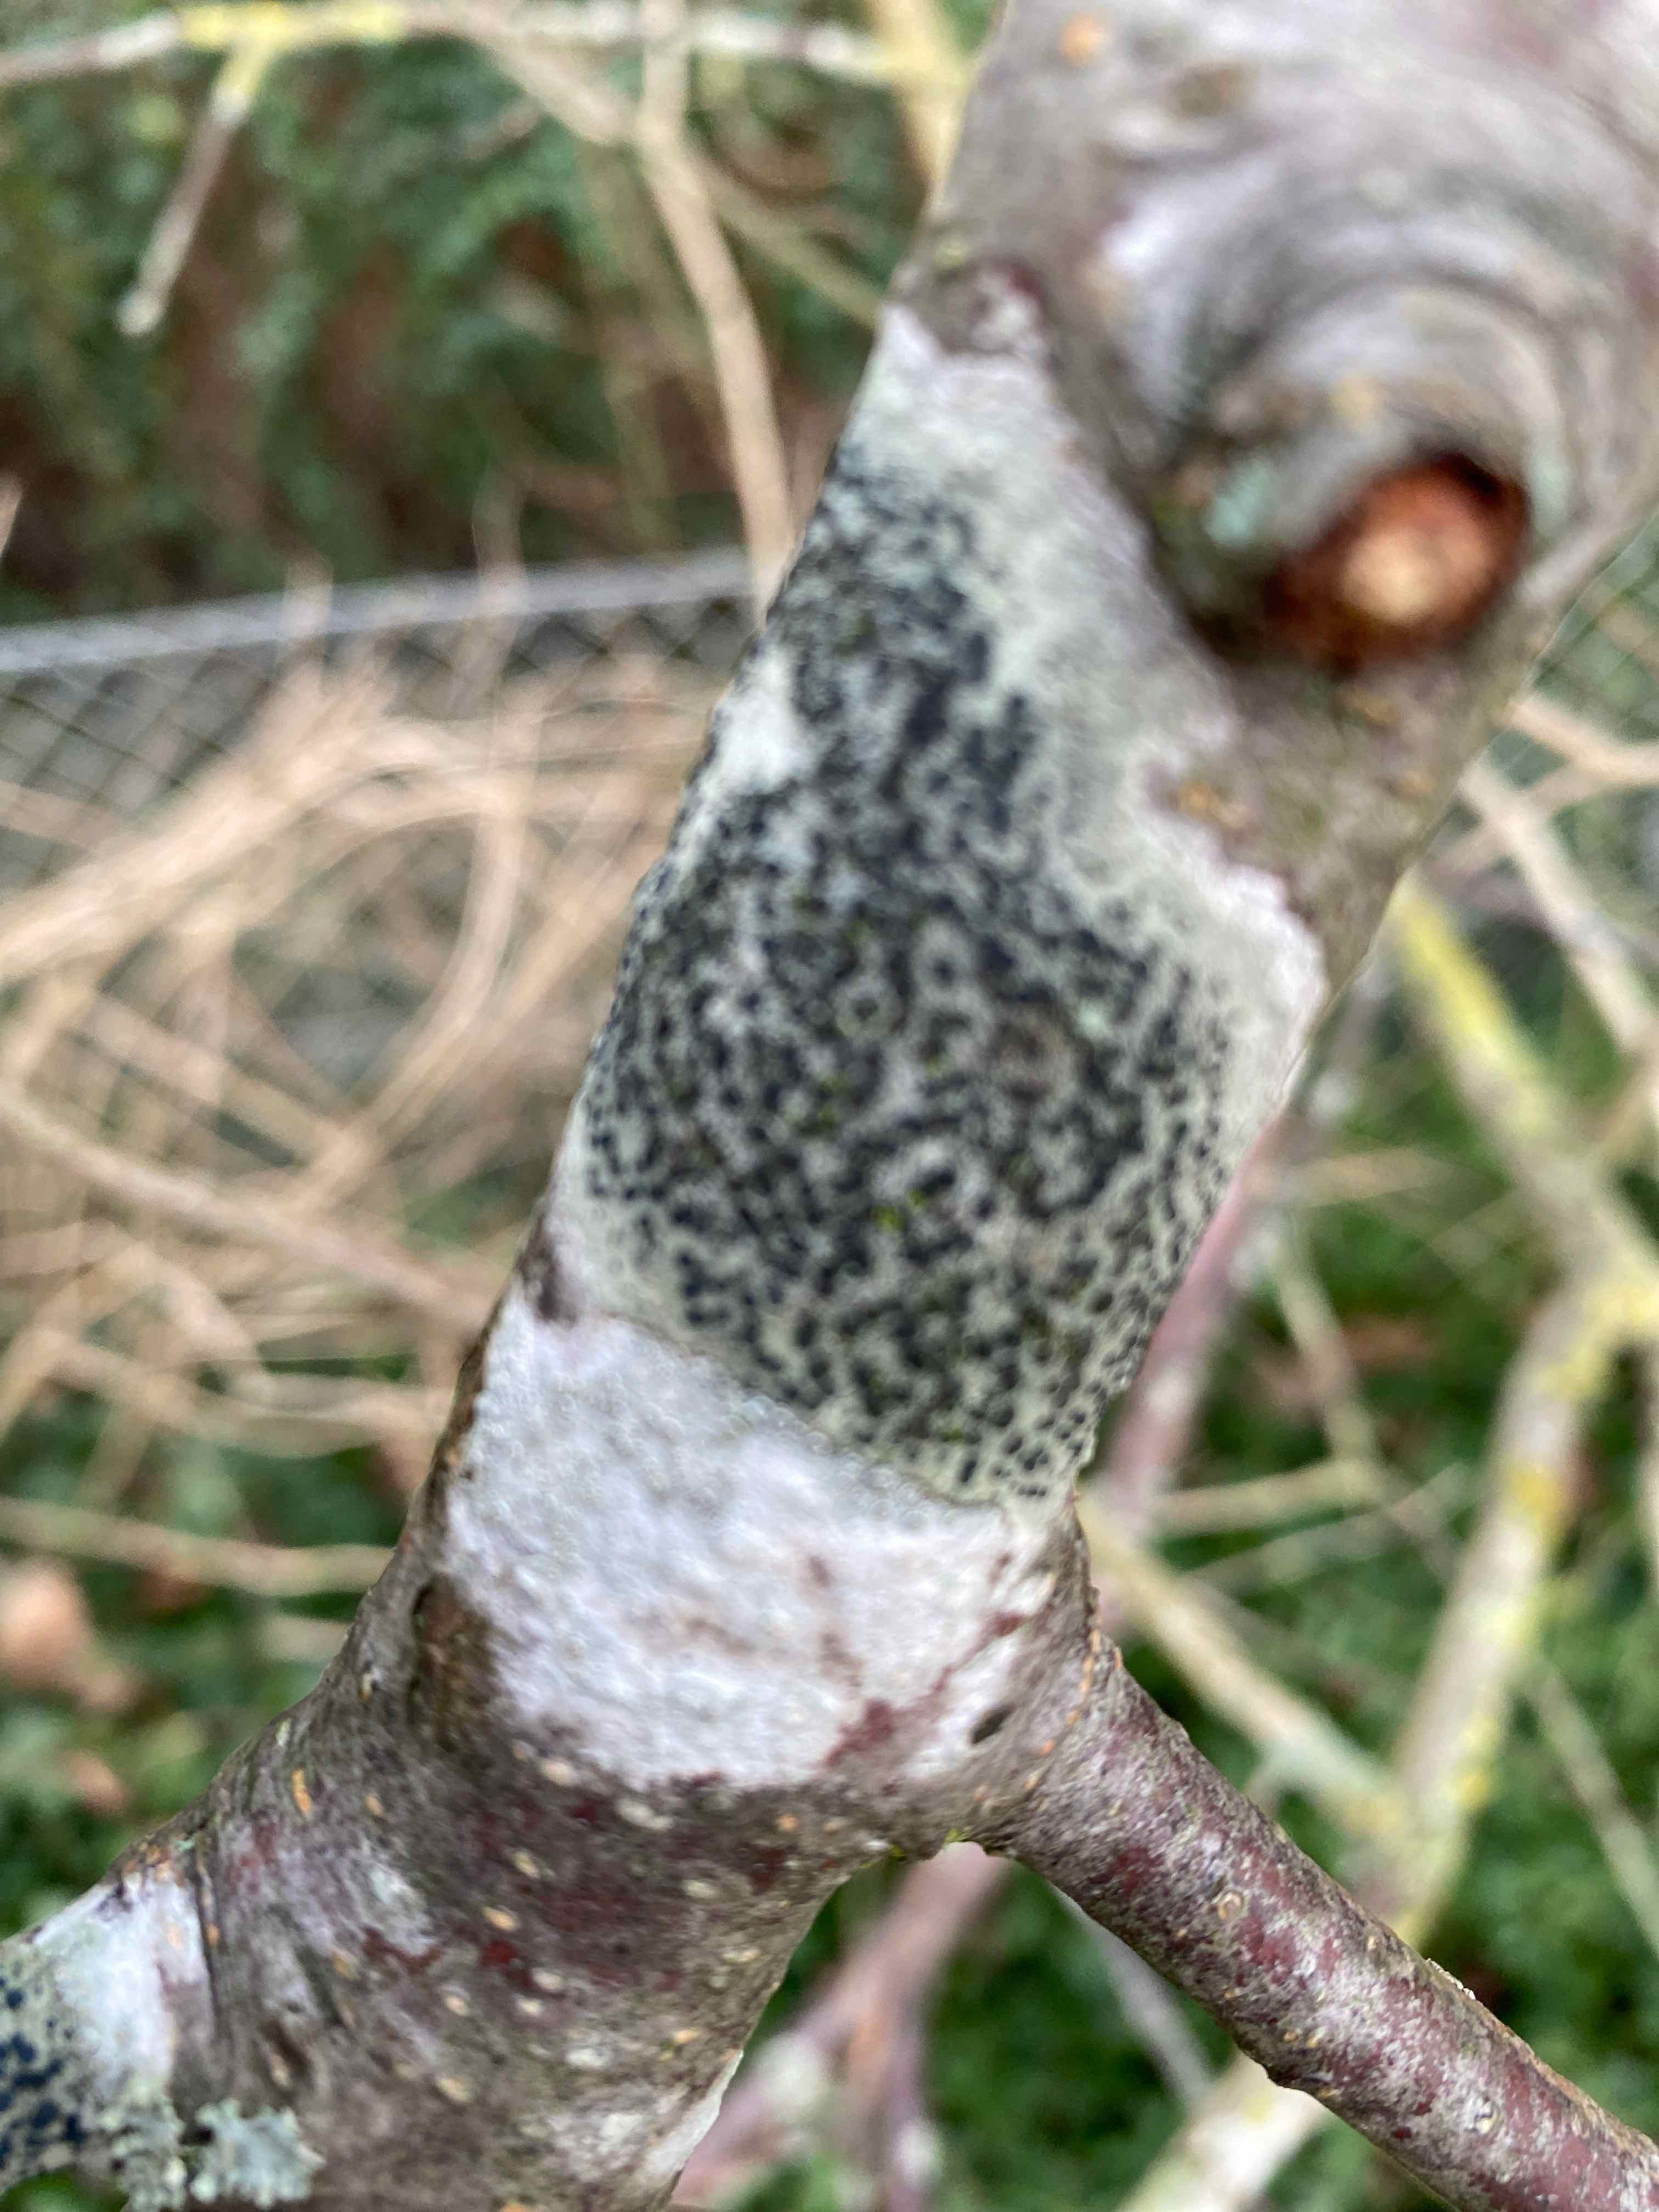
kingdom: Fungi
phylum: Ascomycota
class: Lecanoromycetes
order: Lecanorales
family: Lecanoraceae
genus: Lecidella
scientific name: Lecidella elaeochroma
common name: grågrøn skivelav
